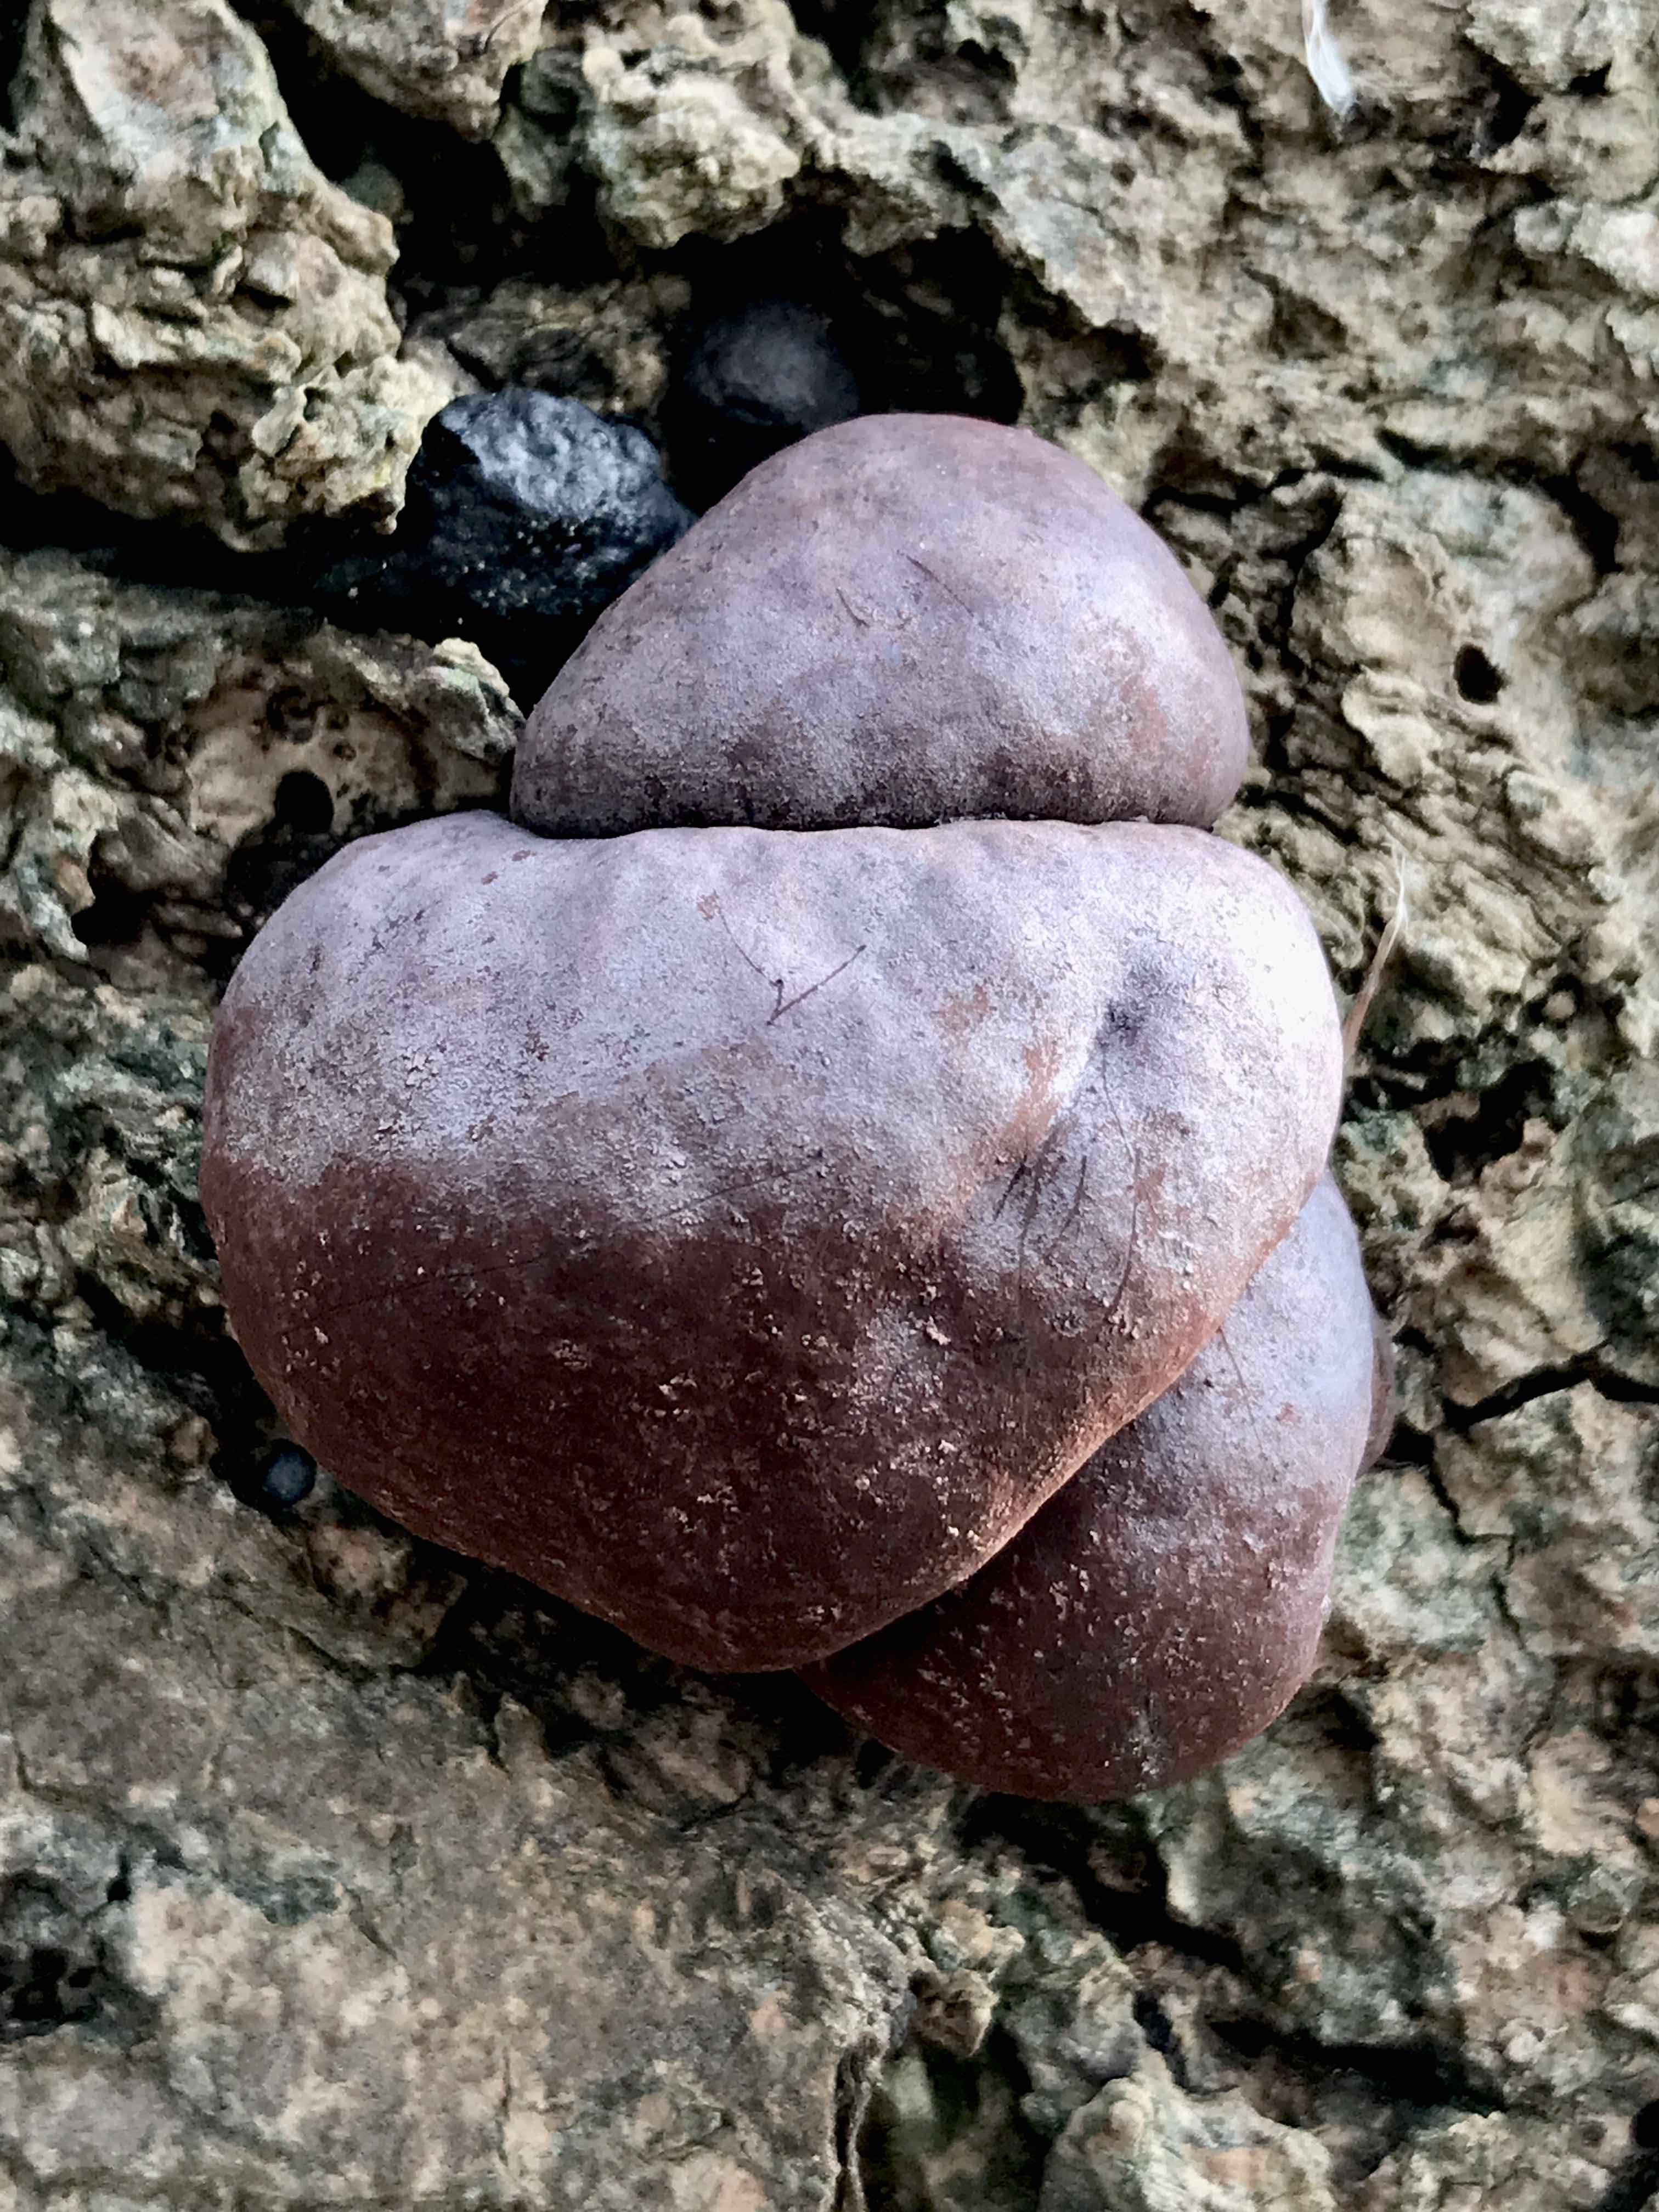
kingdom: Fungi
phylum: Ascomycota
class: Sordariomycetes
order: Xylariales
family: Hypoxylaceae
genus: Daldinia
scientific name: Daldinia concentrica
